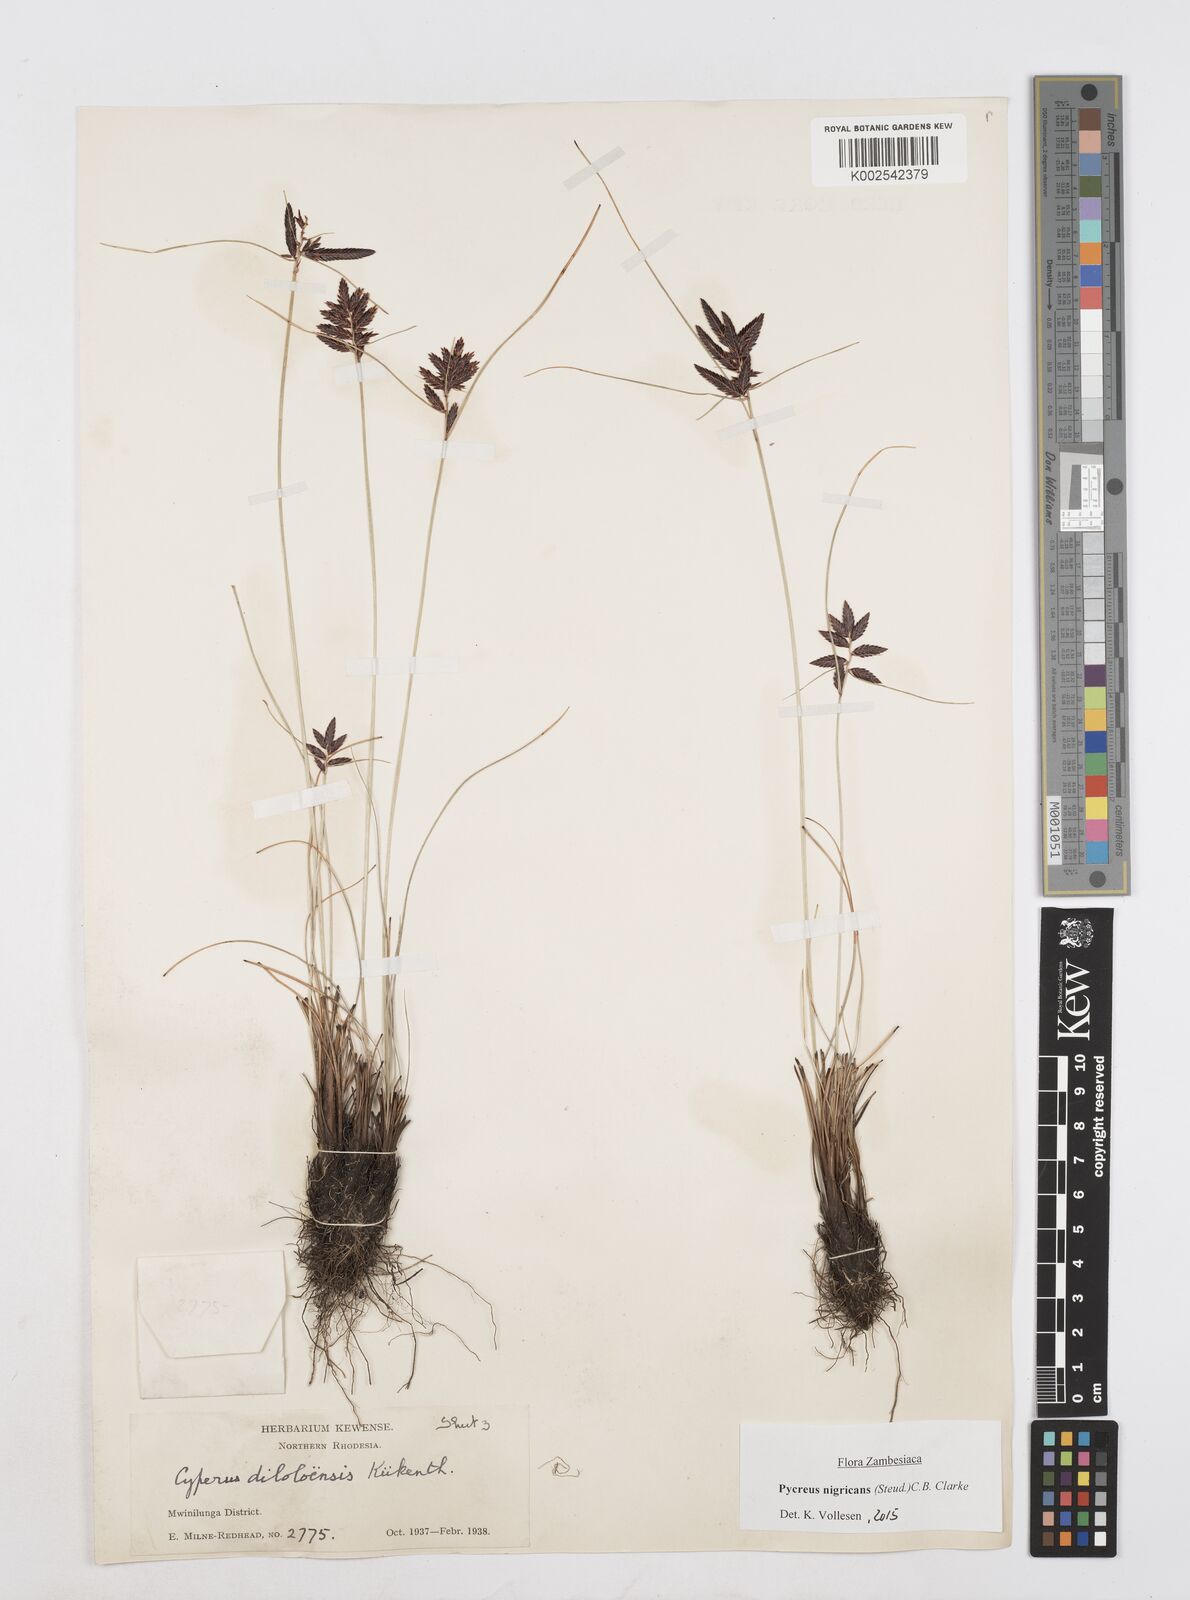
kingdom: Plantae
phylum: Tracheophyta
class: Liliopsida
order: Poales
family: Cyperaceae
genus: Cyperus
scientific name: Cyperus nigricans
